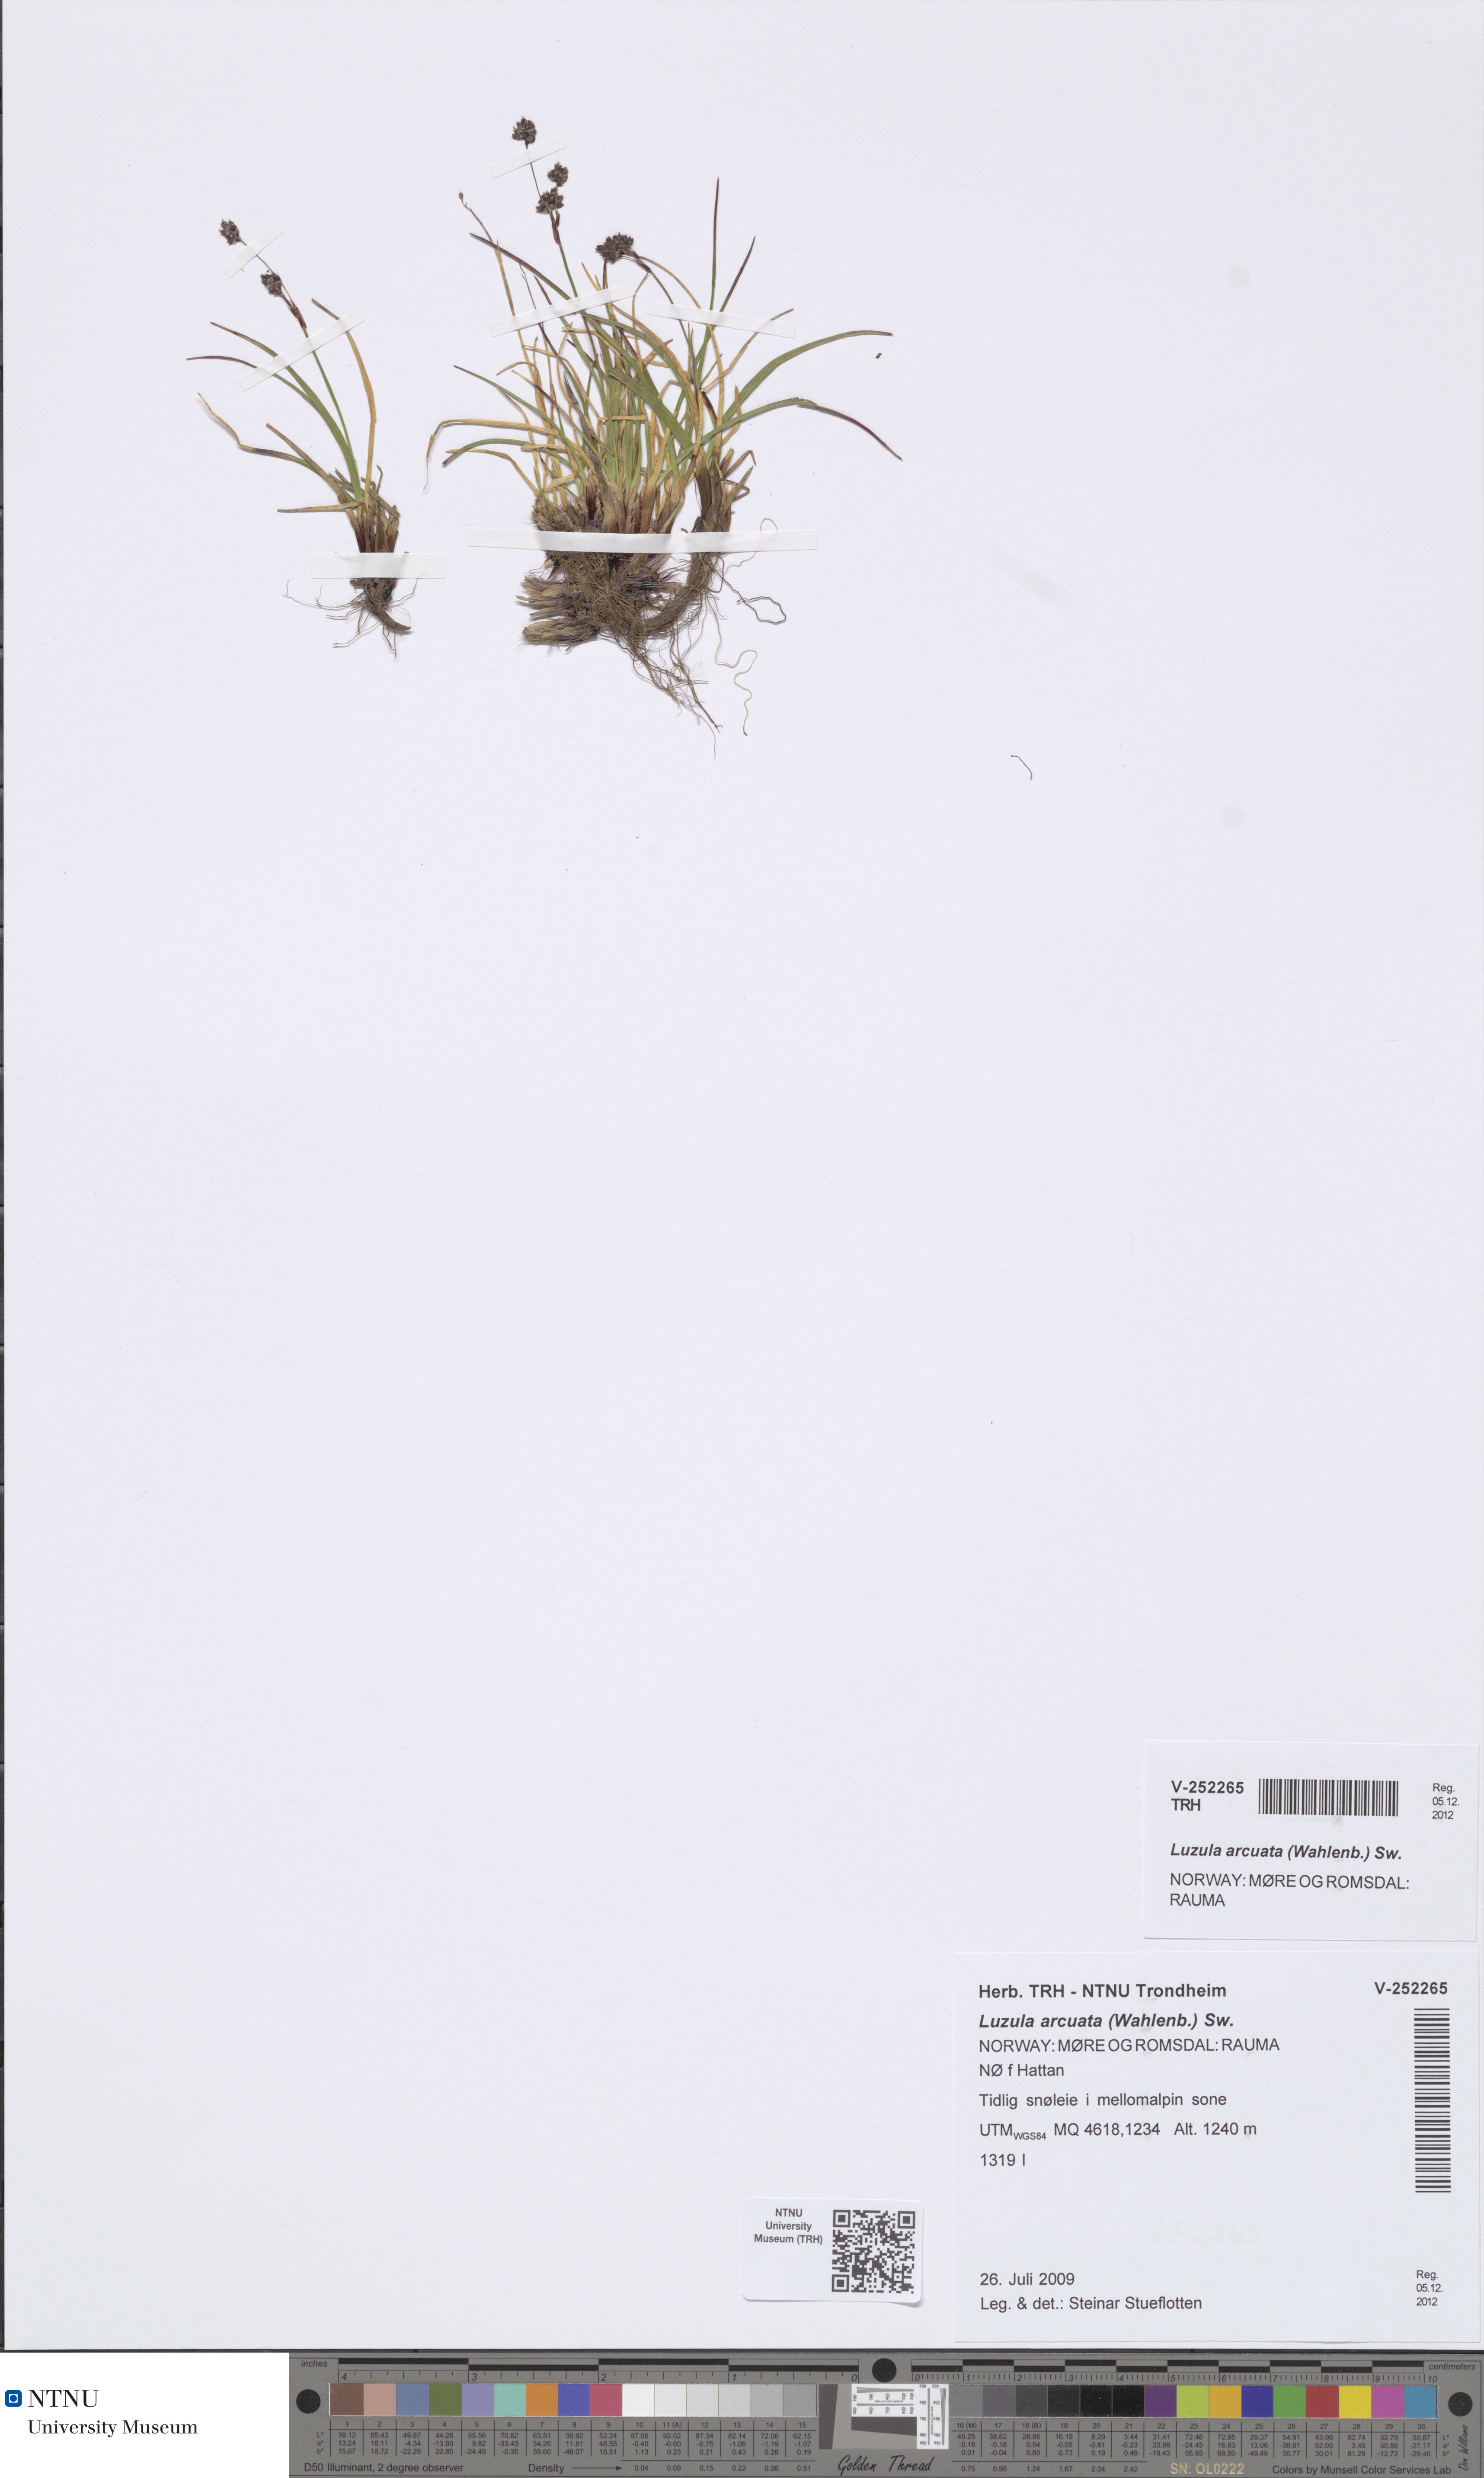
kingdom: Plantae
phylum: Tracheophyta
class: Liliopsida
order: Poales
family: Juncaceae
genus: Luzula
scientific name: Luzula arcuata
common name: Curved wood-rush
